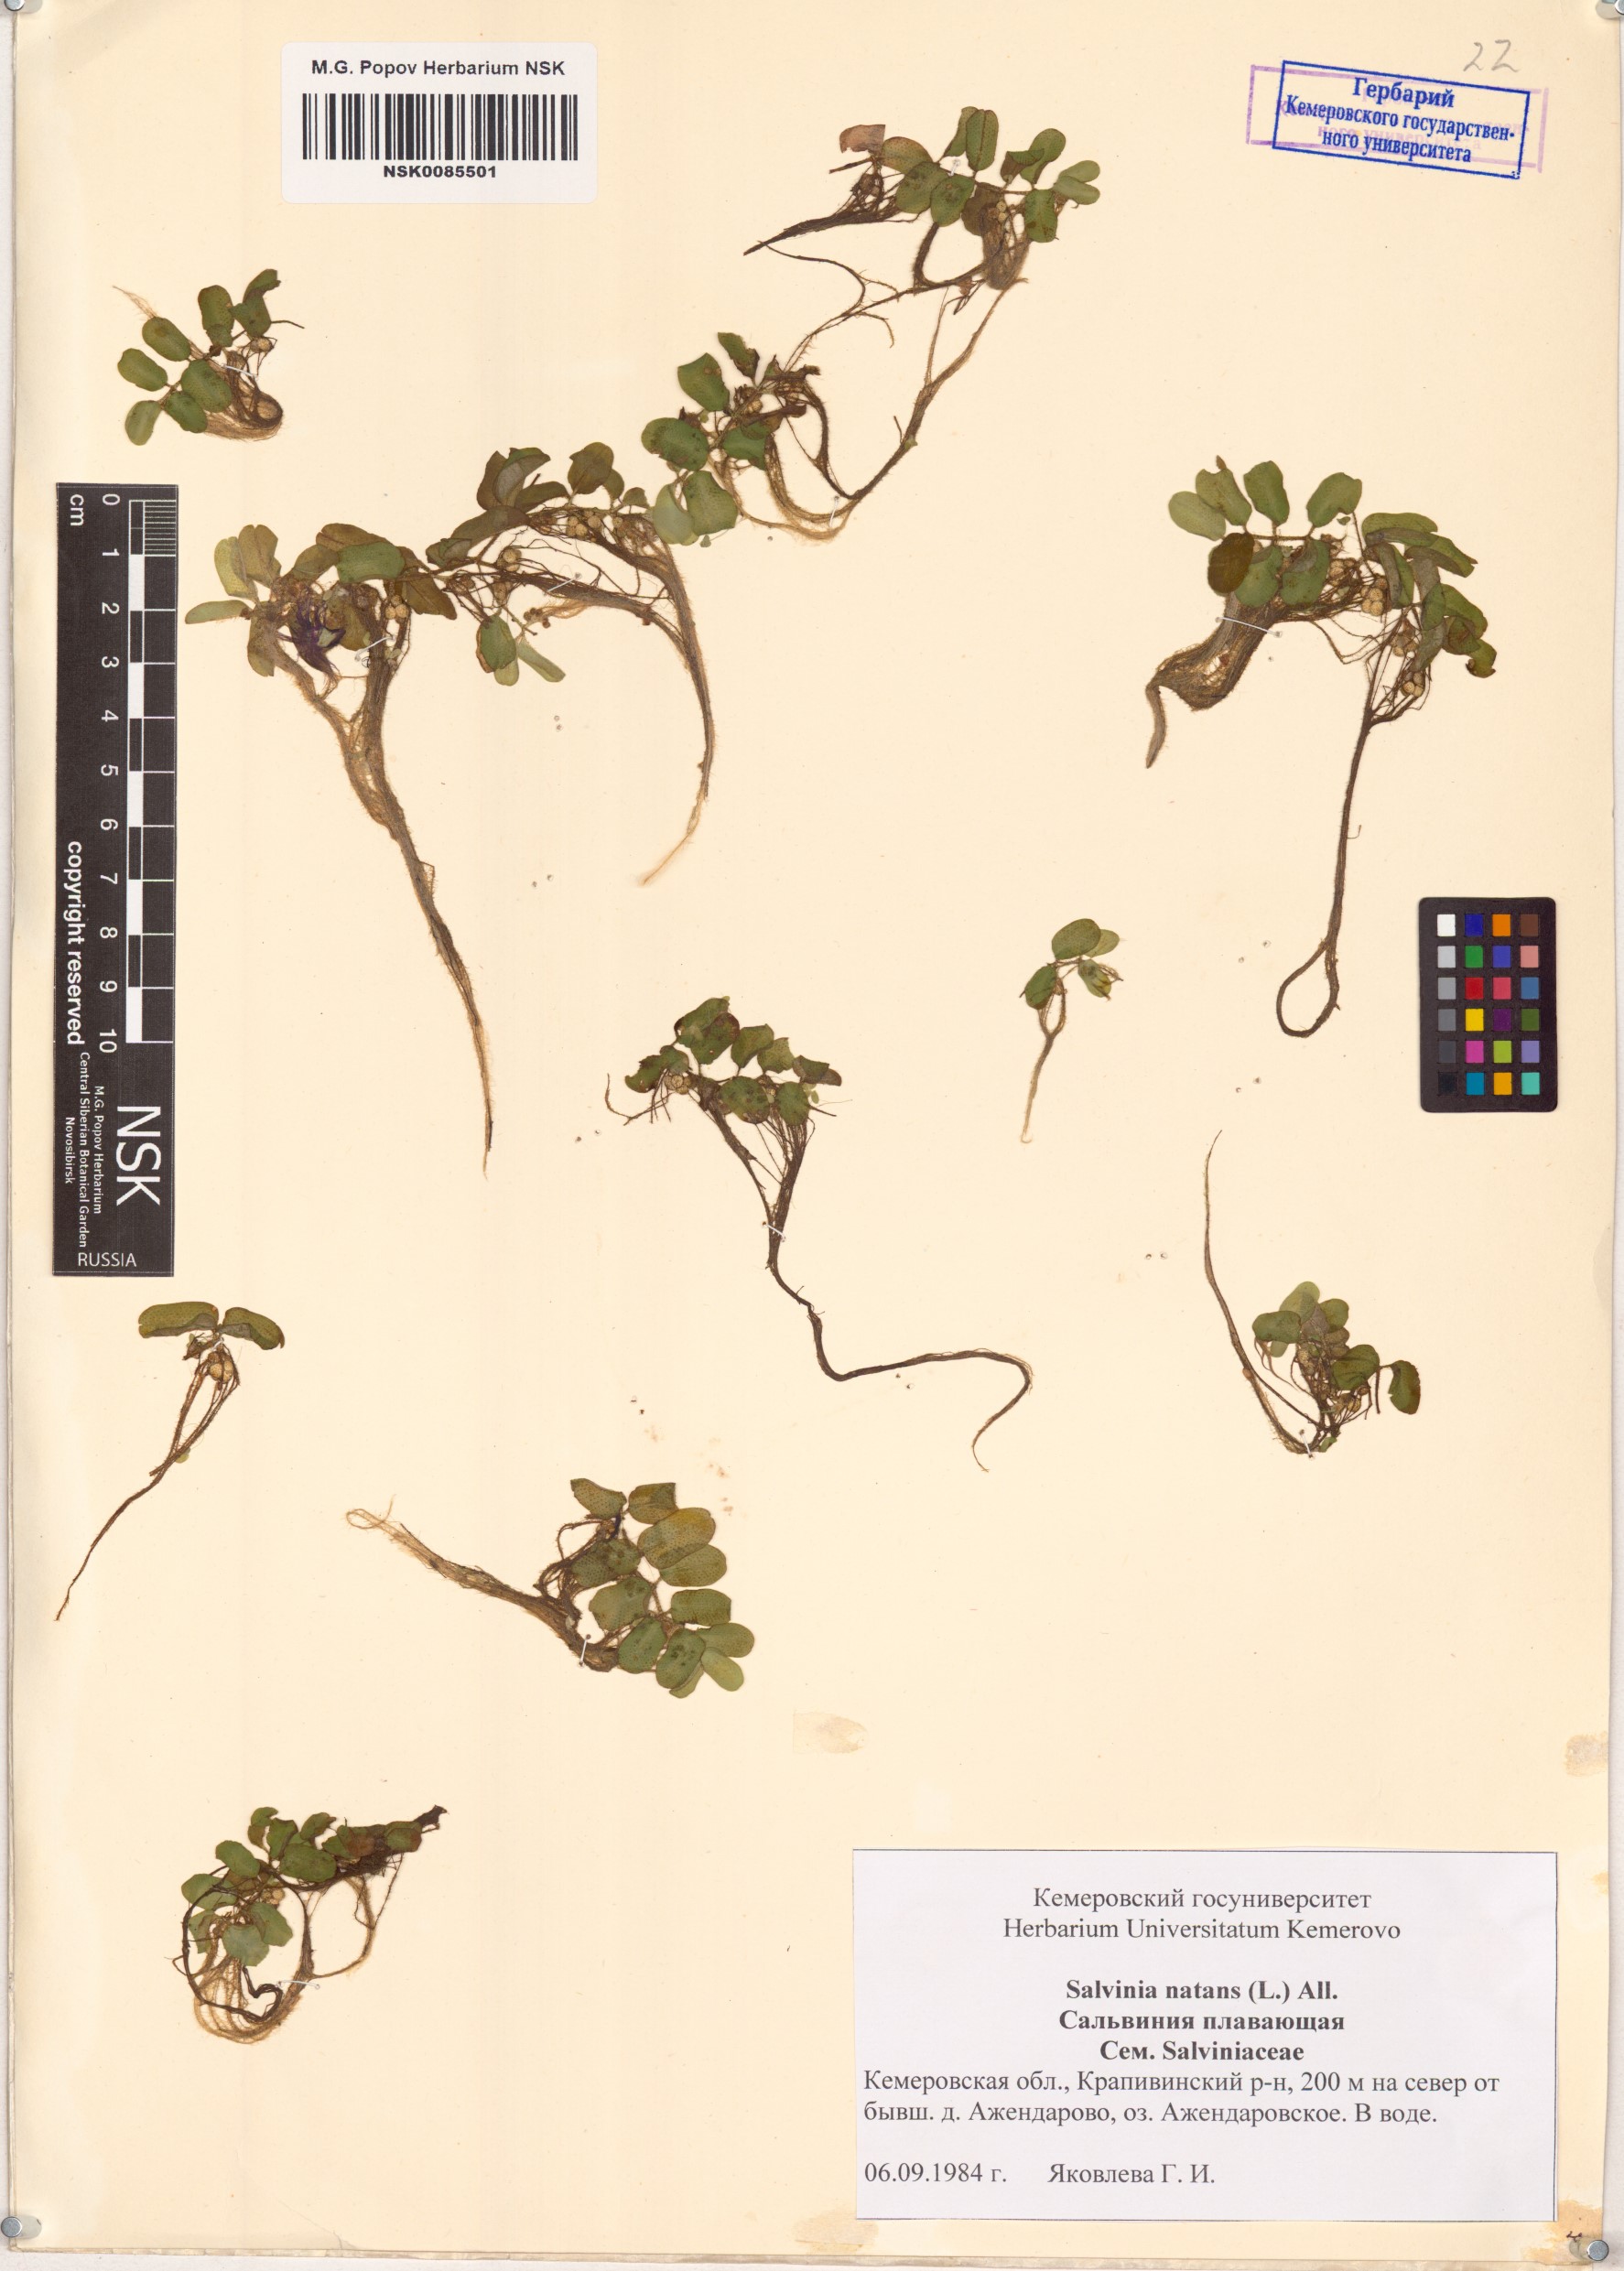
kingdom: Plantae
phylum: Tracheophyta
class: Polypodiopsida
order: Salviniales
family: Salviniaceae
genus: Salvinia
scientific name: Salvinia natans
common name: Floating fern
